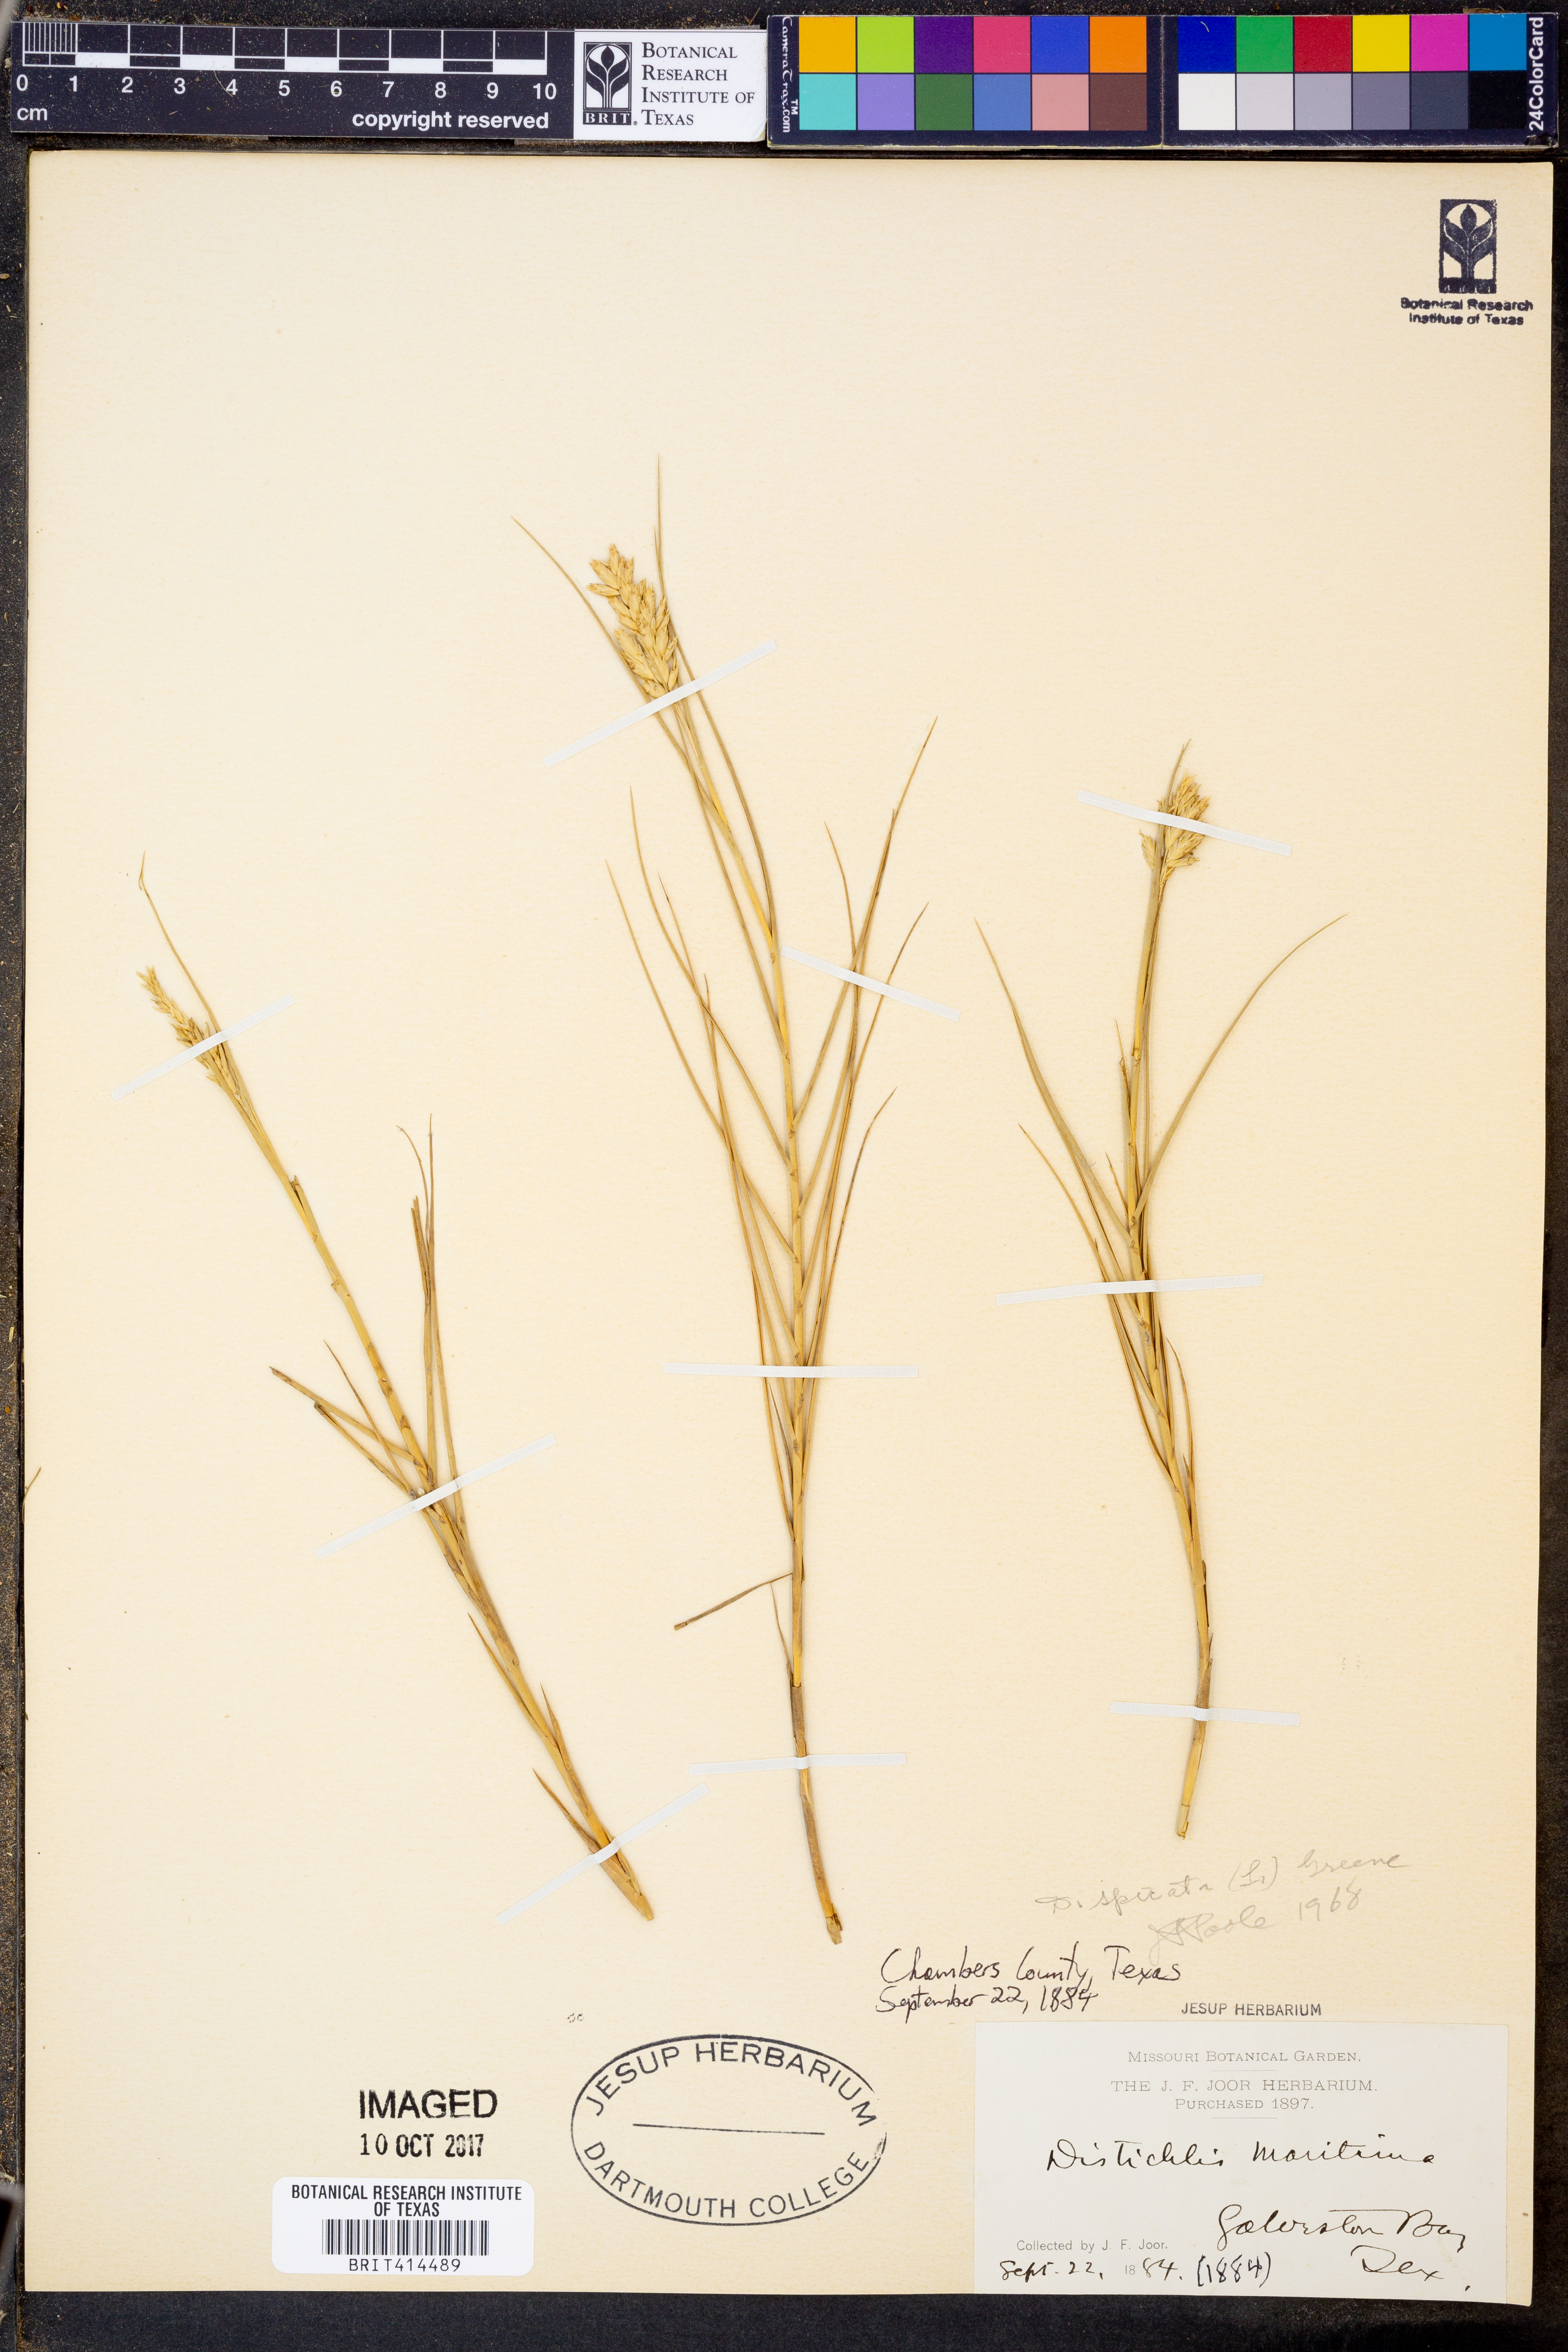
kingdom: Plantae
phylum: Tracheophyta
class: Liliopsida
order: Poales
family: Poaceae
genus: Distichlis
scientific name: Distichlis spicata
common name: Saltgrass
